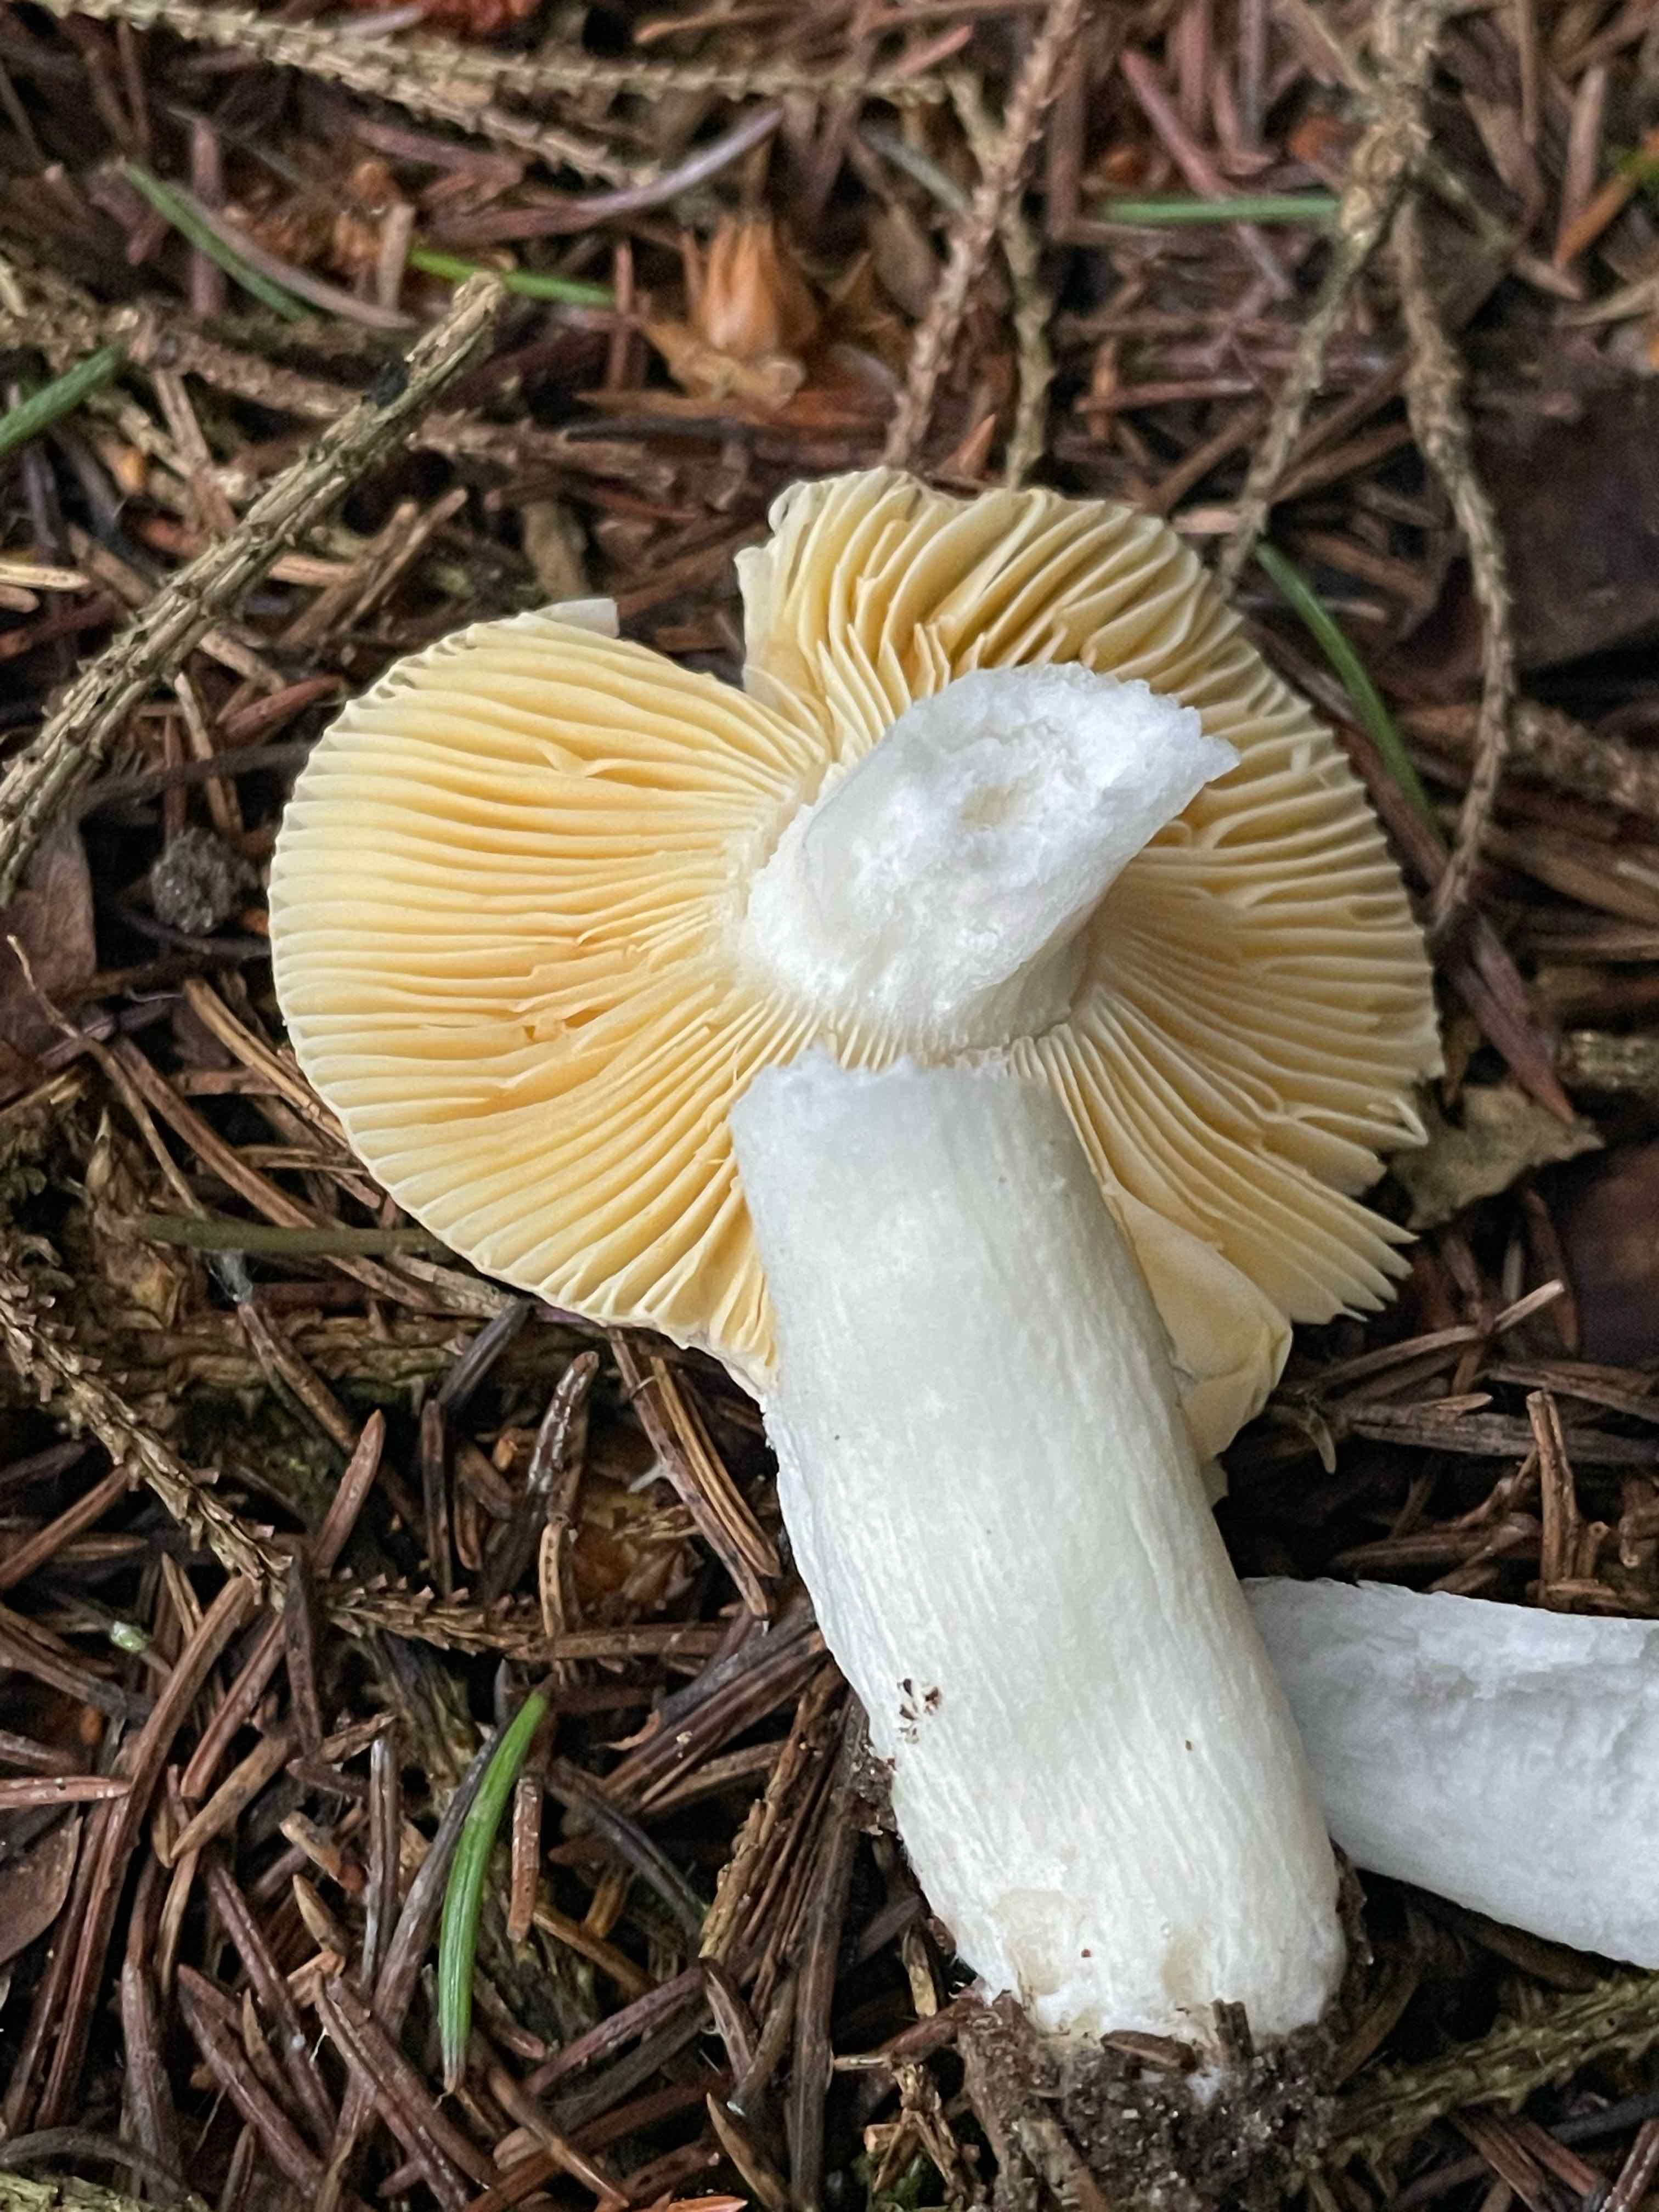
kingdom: Fungi
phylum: Basidiomycota
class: Agaricomycetes
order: Russulales
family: Russulaceae
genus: Russula
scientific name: Russula nauseosa
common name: spinkel skørhat
